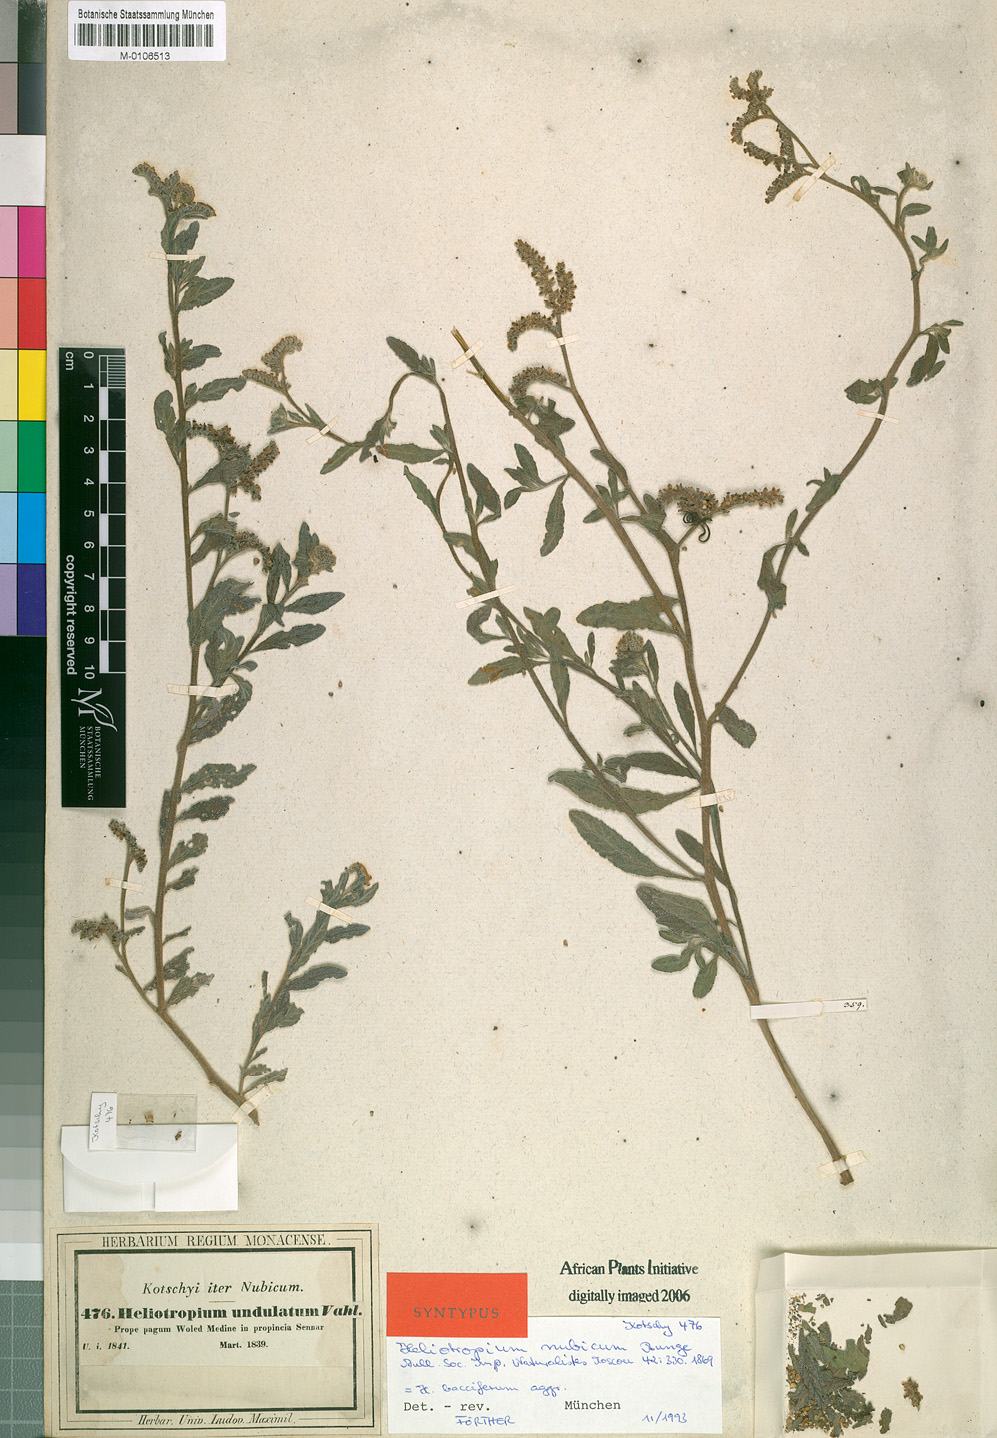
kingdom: Plantae
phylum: Tracheophyta
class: Magnoliopsida
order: Boraginales
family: Heliotropiaceae
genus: Heliotropium
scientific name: Heliotropium bacciferum
